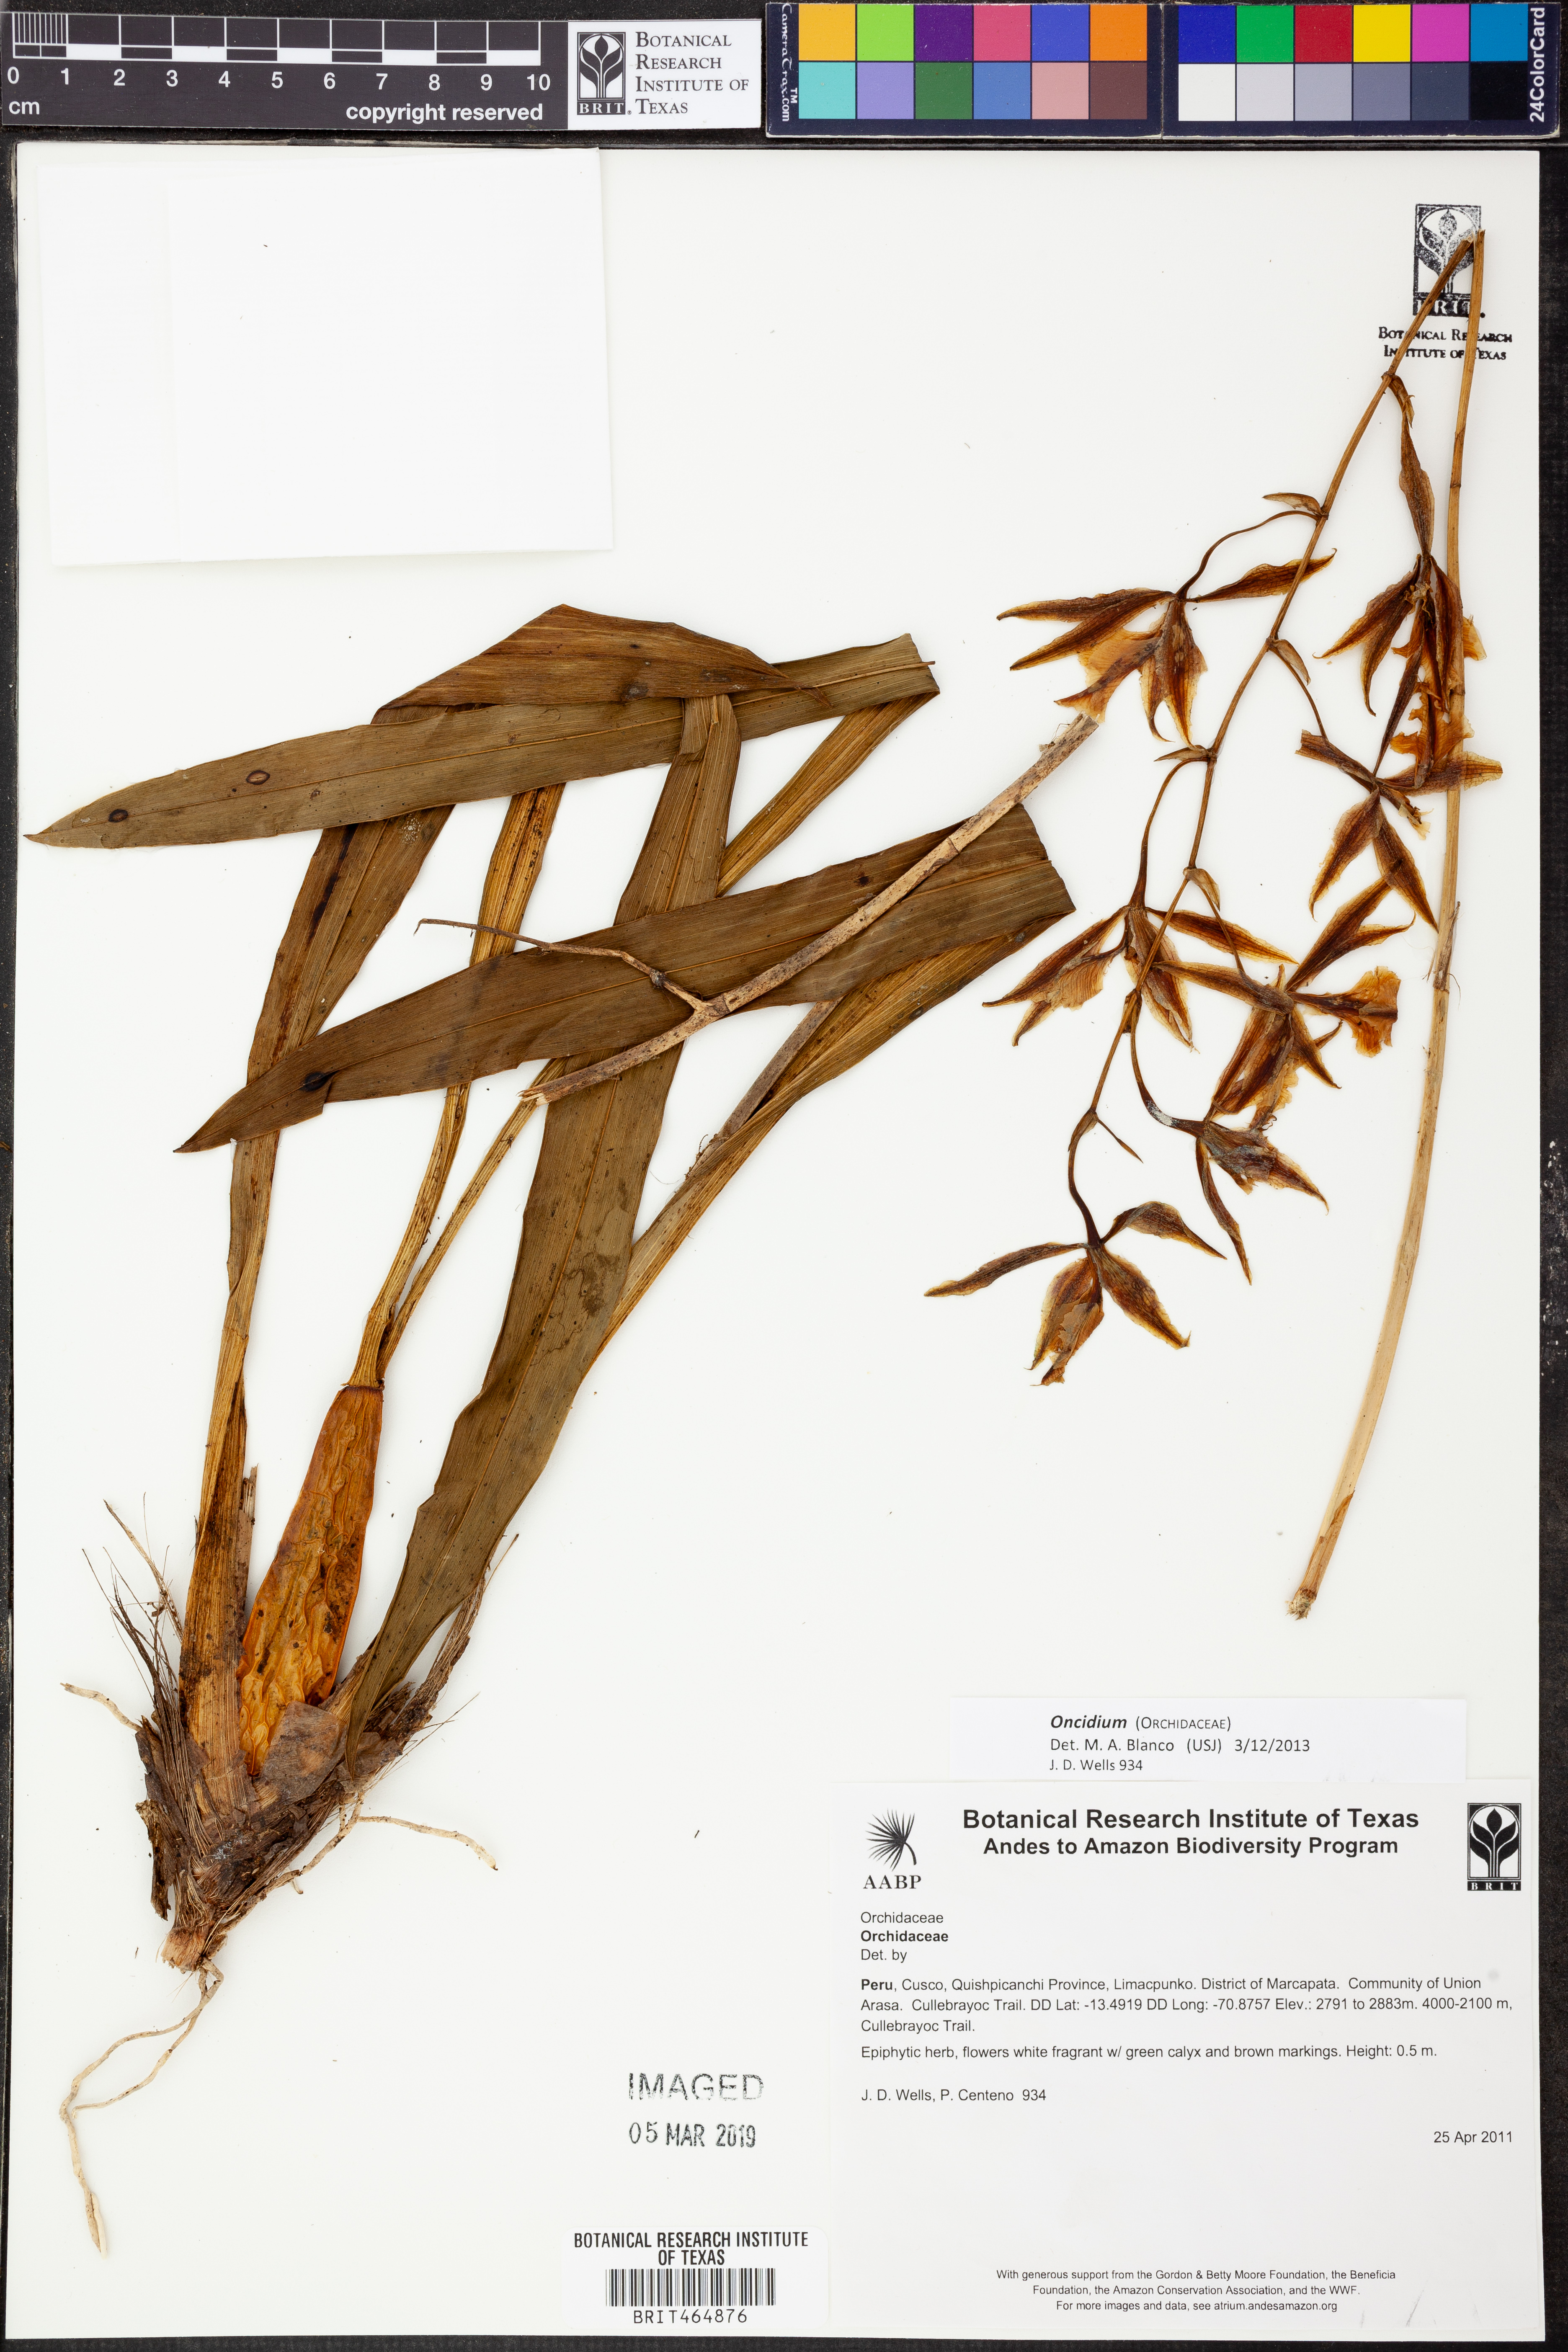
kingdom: Plantae
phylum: Tracheophyta
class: Liliopsida
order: Asparagales
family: Orchidaceae
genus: Oncidium
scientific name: Oncidium
